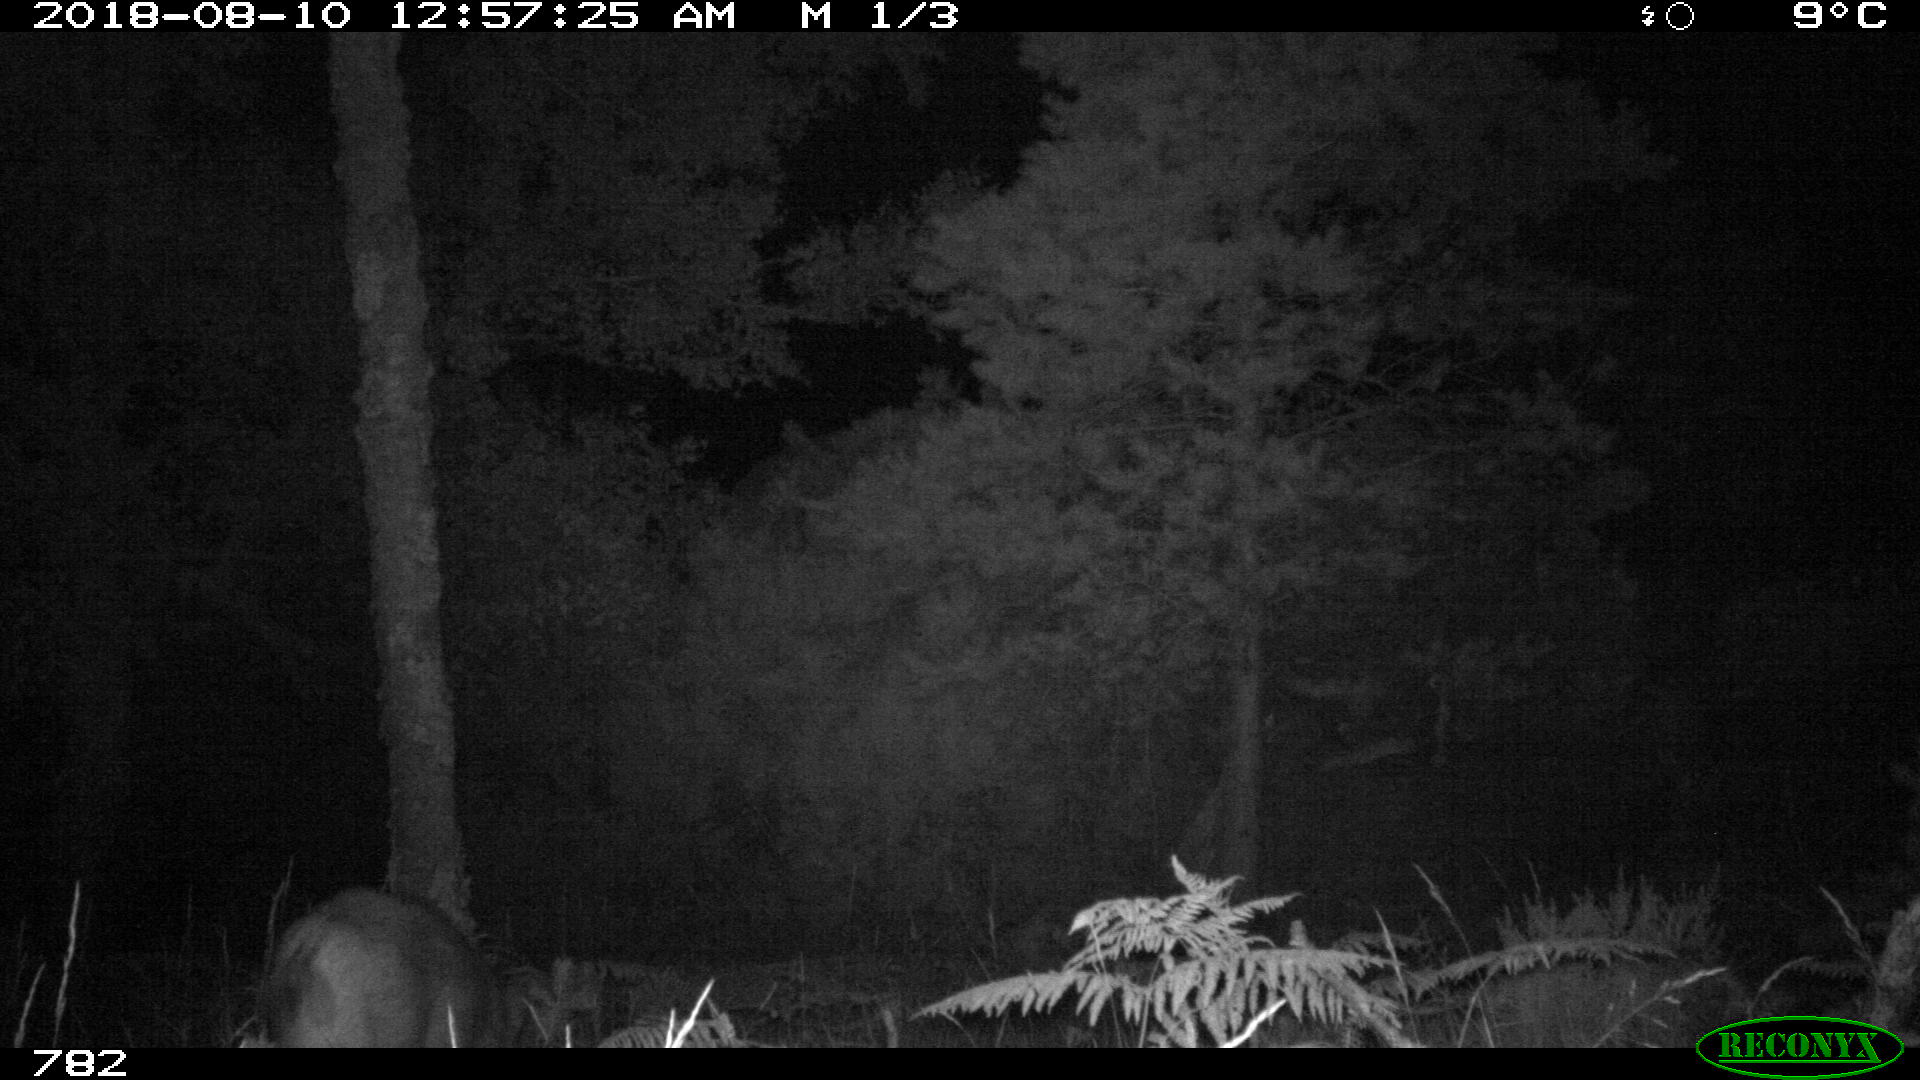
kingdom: Animalia
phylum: Chordata
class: Mammalia
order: Artiodactyla
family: Suidae
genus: Sus
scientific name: Sus scrofa
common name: Wild boar
